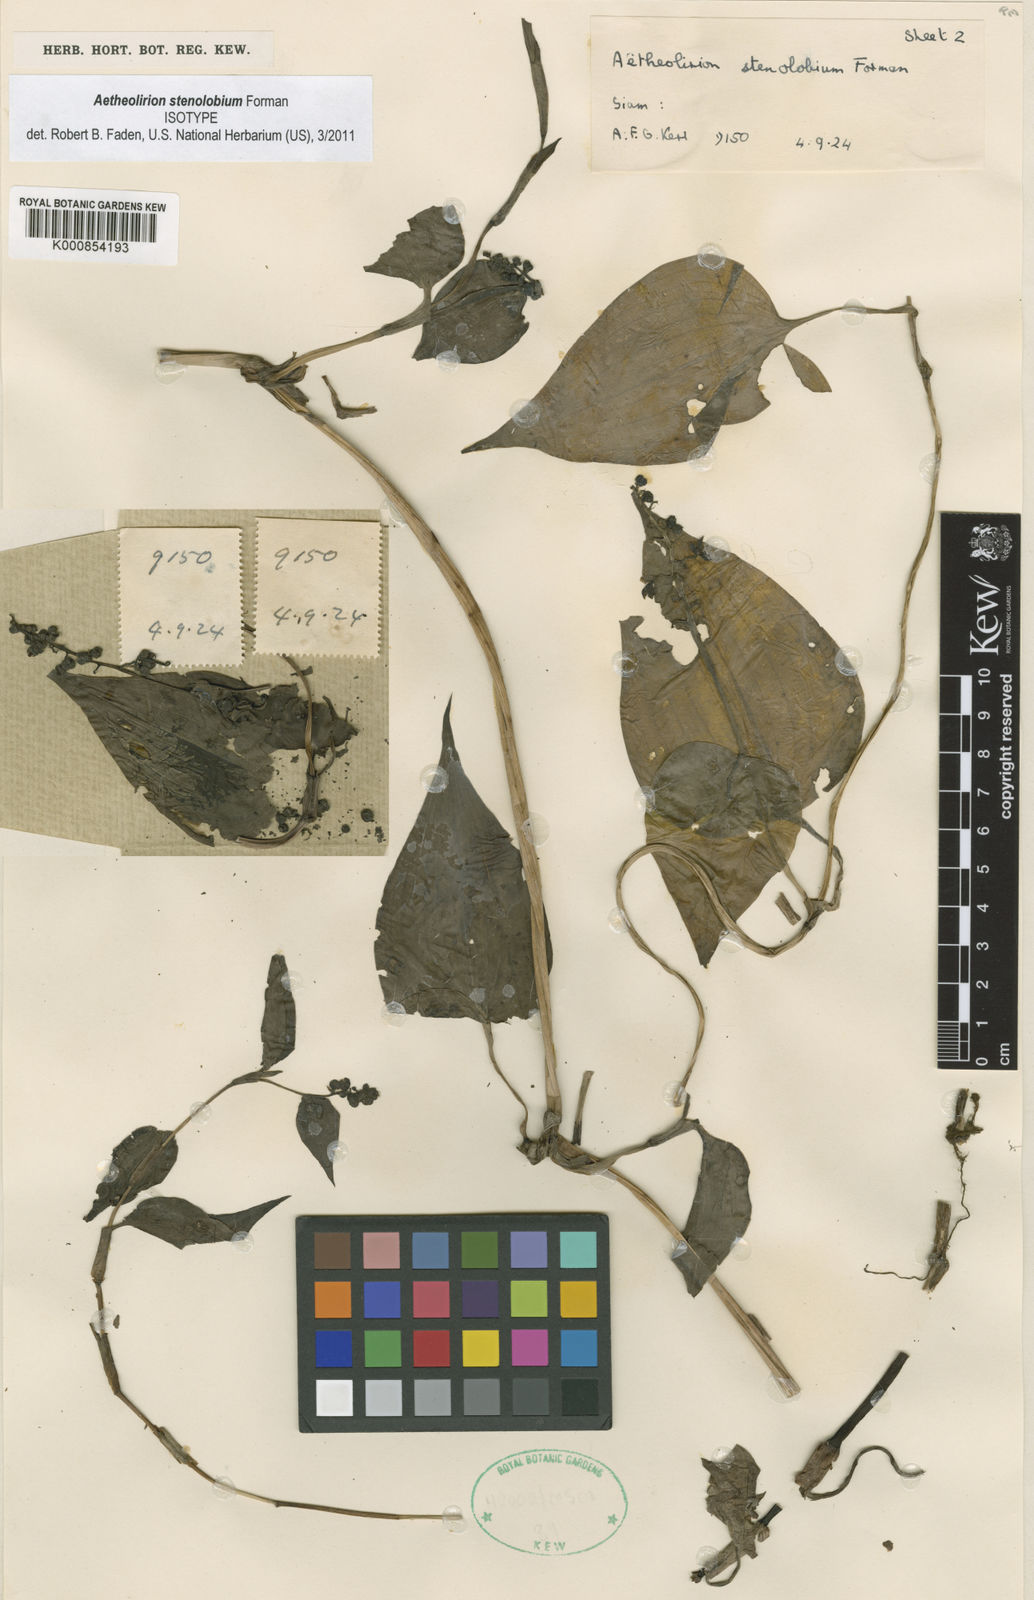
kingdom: Plantae
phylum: Tracheophyta
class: Liliopsida
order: Commelinales
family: Commelinaceae
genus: Aetheolirion
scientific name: Aetheolirion stenolobium
